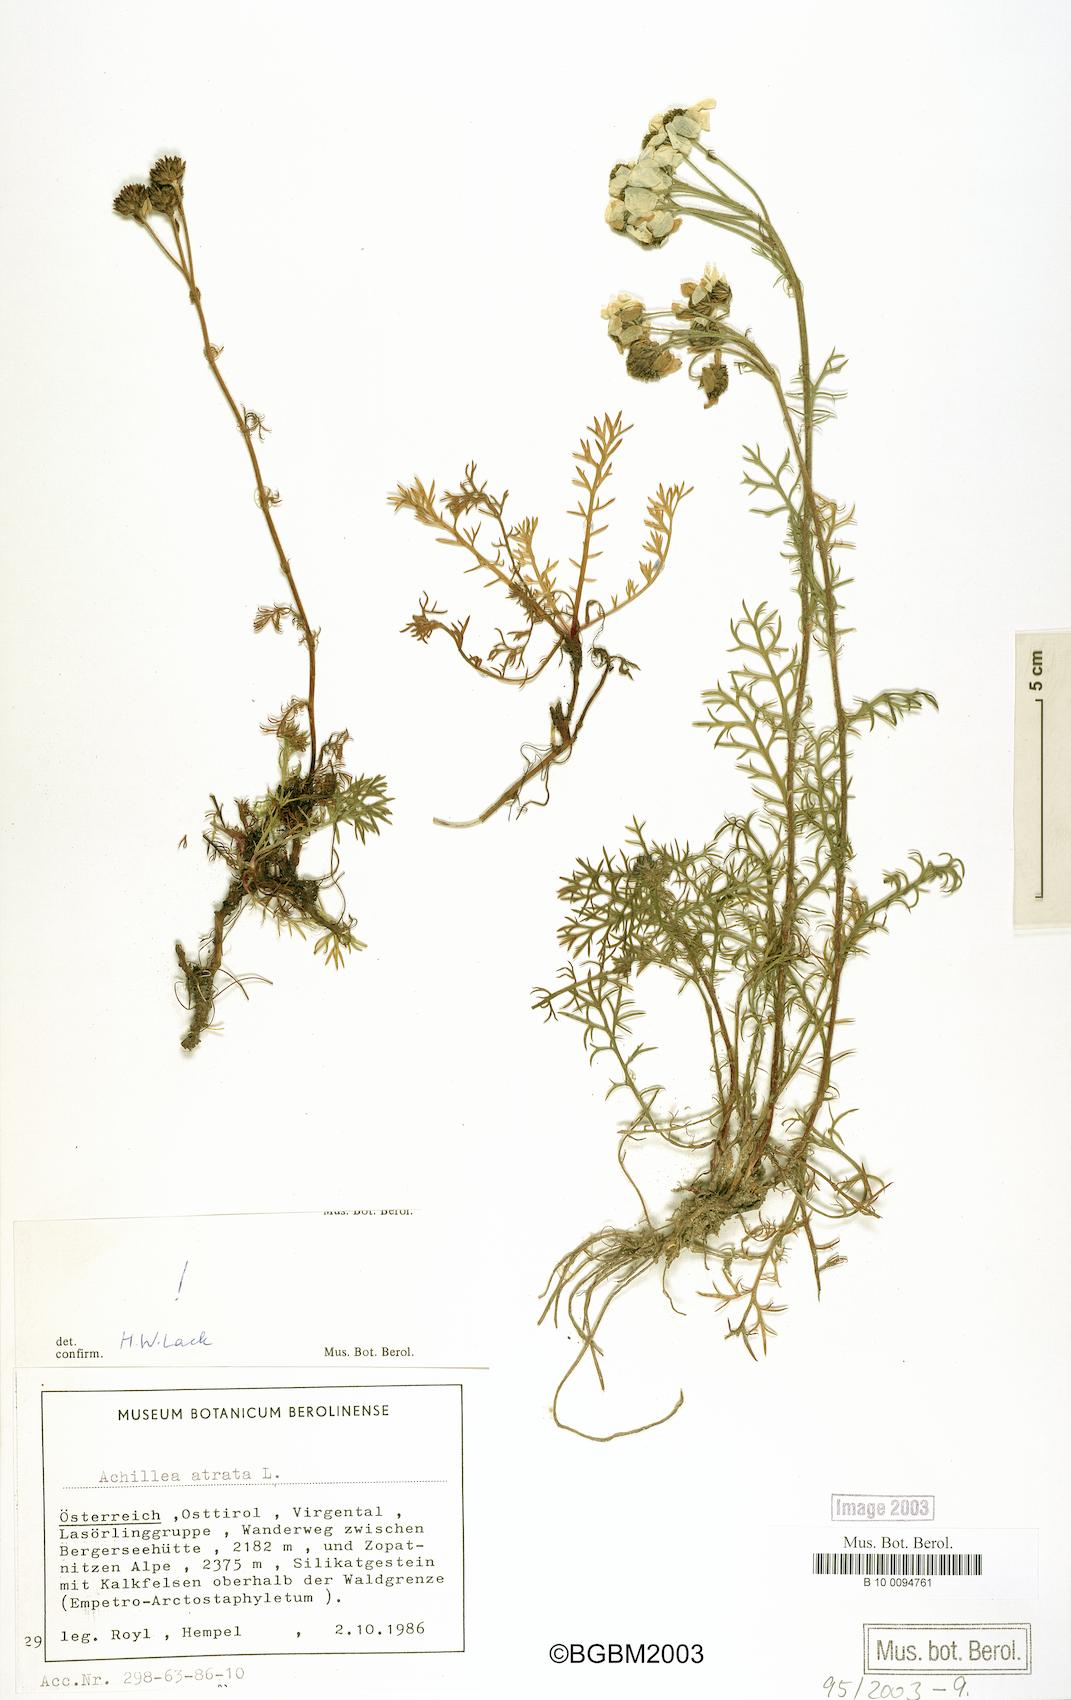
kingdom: Plantae
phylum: Tracheophyta
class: Magnoliopsida
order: Asterales
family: Asteraceae
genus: Achillea
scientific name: Achillea atrata
